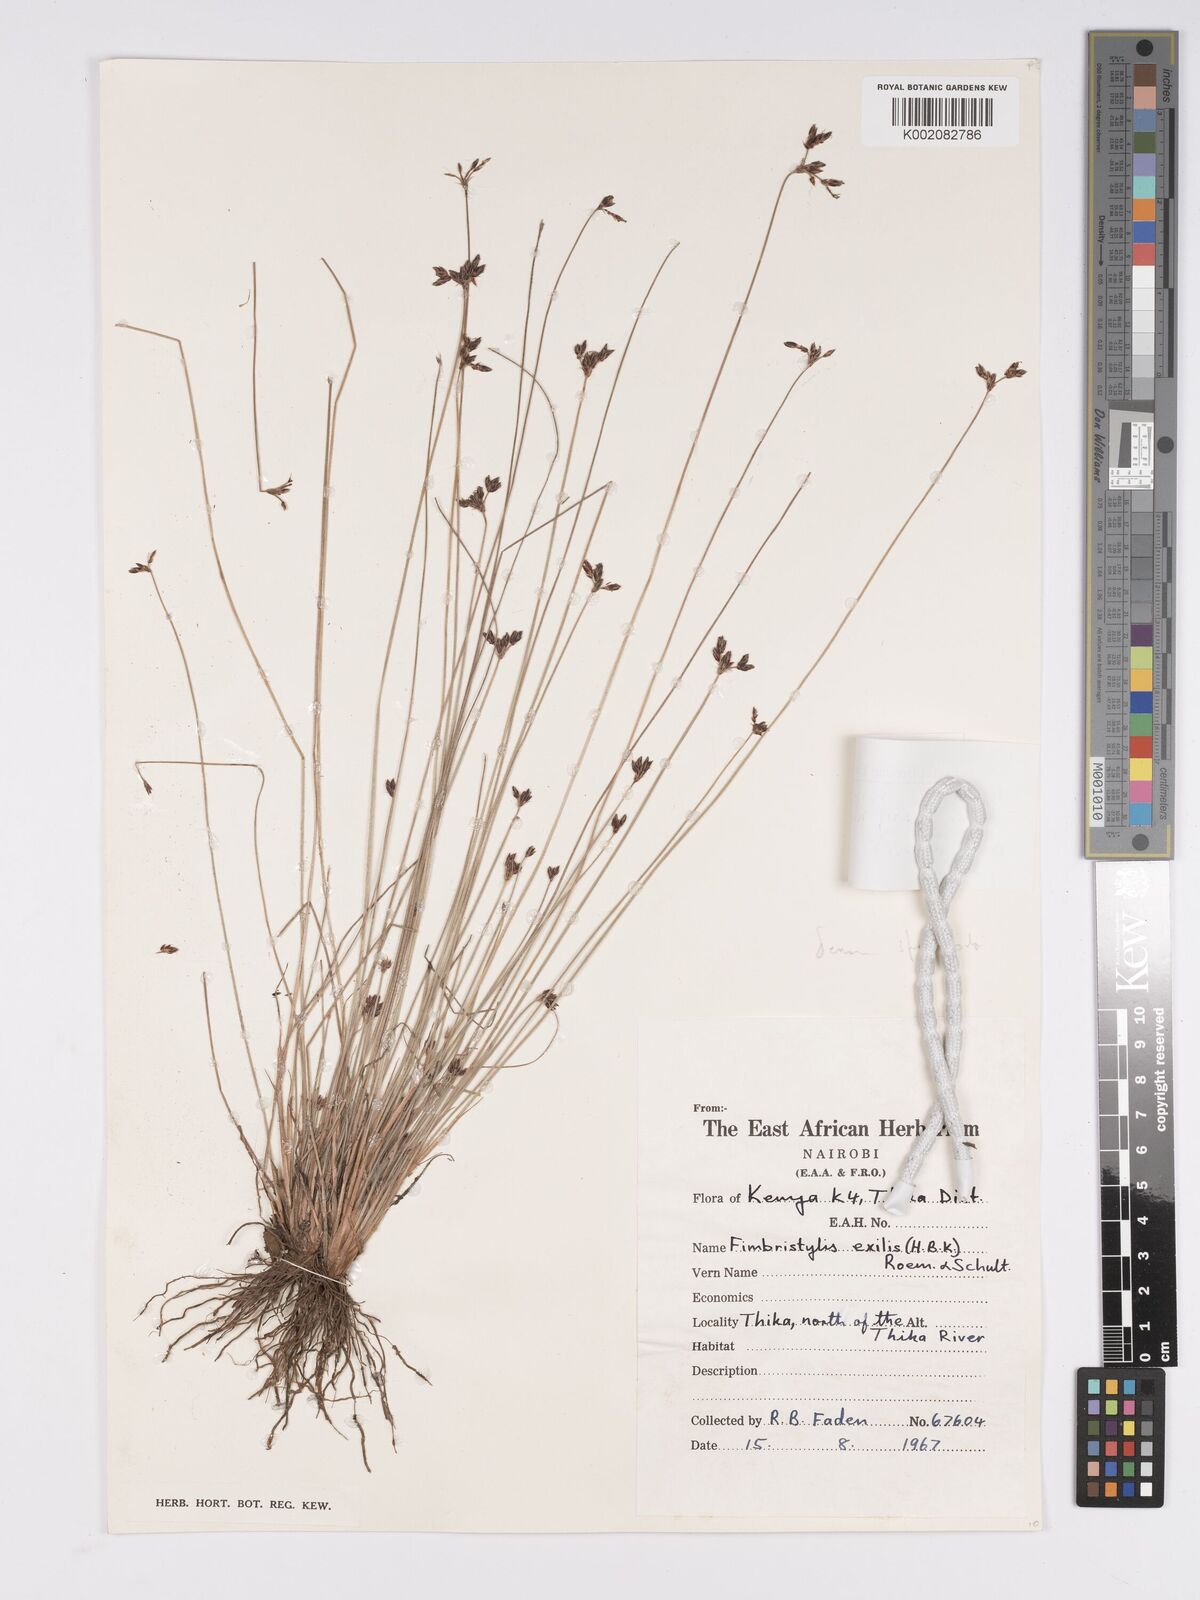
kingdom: Plantae
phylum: Tracheophyta
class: Liliopsida
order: Poales
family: Cyperaceae
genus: Bulbostylis
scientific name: Bulbostylis hispidula
